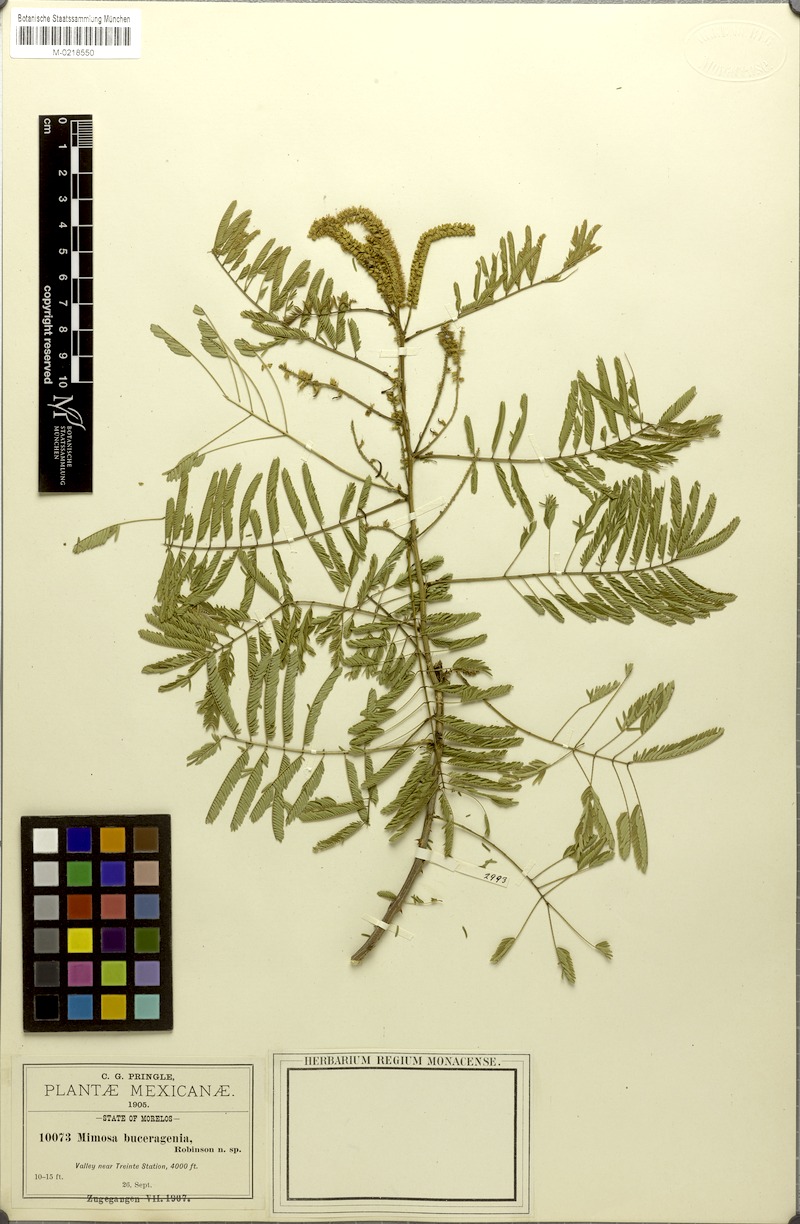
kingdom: Plantae
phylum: Tracheophyta
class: Magnoliopsida
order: Fabales
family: Fabaceae
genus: Piptadenia
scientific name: Piptadenia retusa
